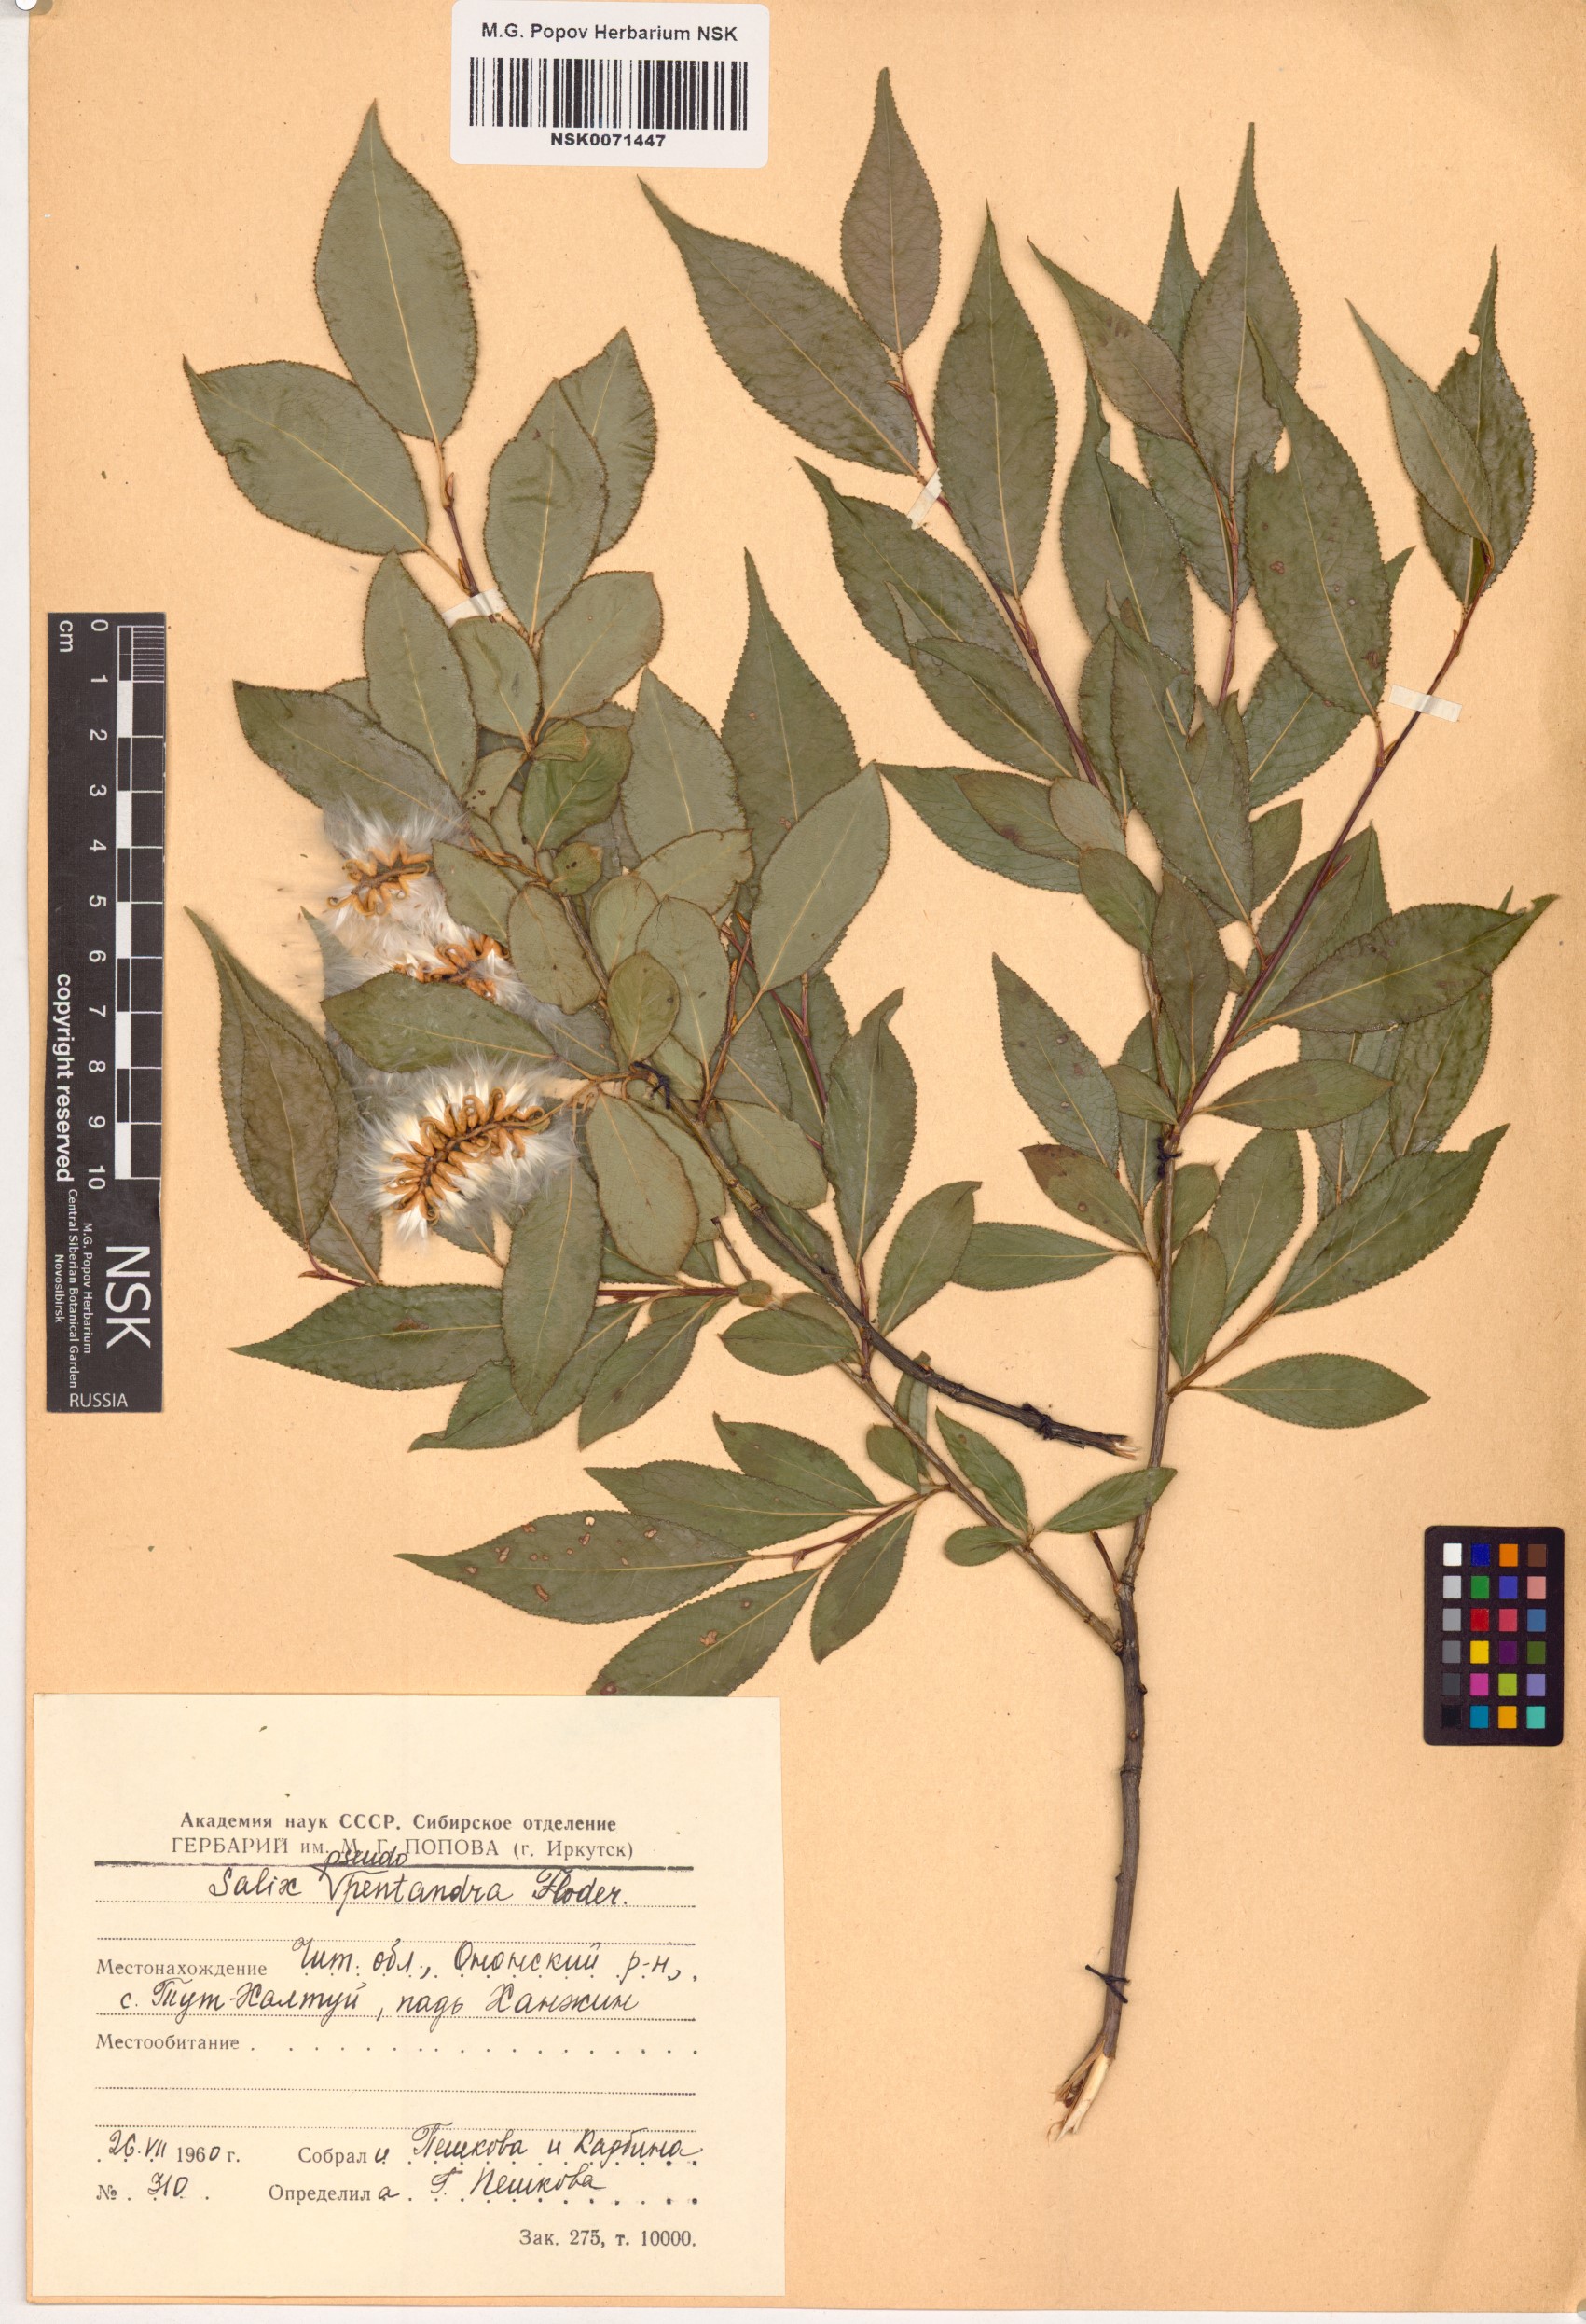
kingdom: Plantae
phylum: Tracheophyta
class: Magnoliopsida
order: Malpighiales
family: Salicaceae
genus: Salix
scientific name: Salix pseudopentandra
